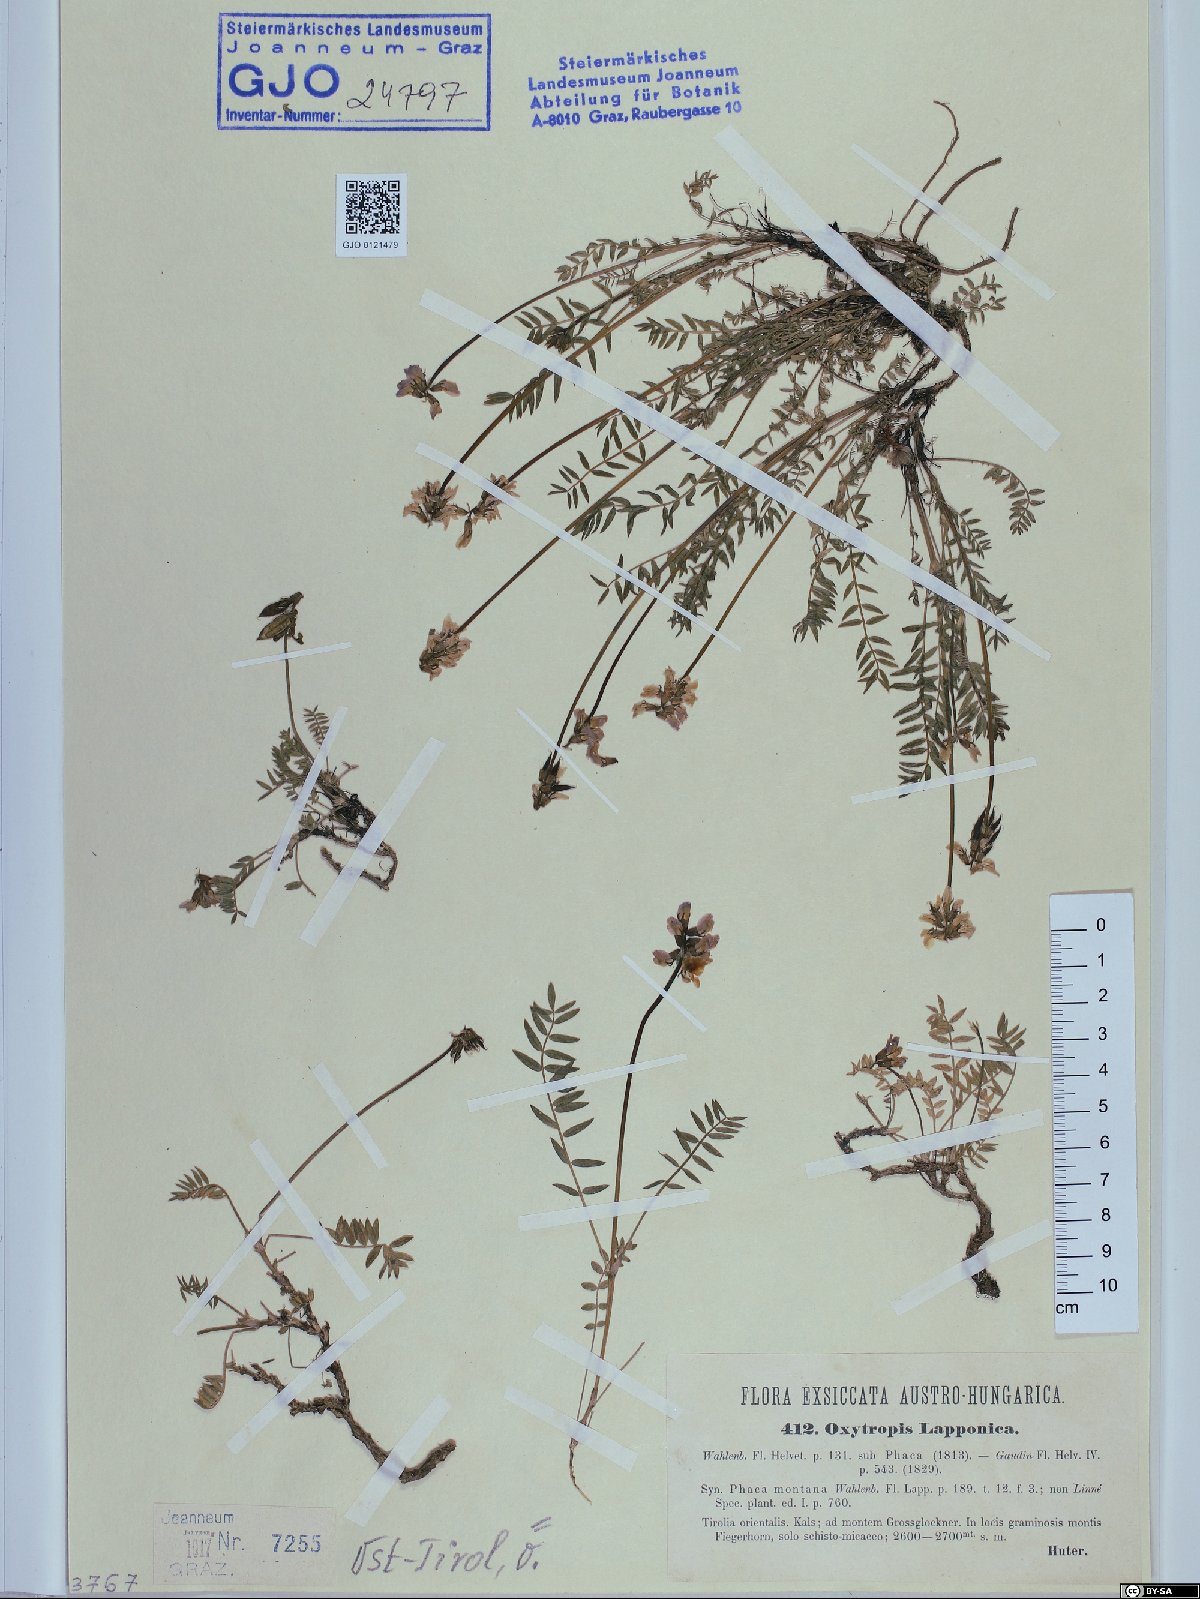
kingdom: Plantae
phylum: Tracheophyta
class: Magnoliopsida
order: Fabales
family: Fabaceae
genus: Oxytropis
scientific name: Oxytropis lapponica
